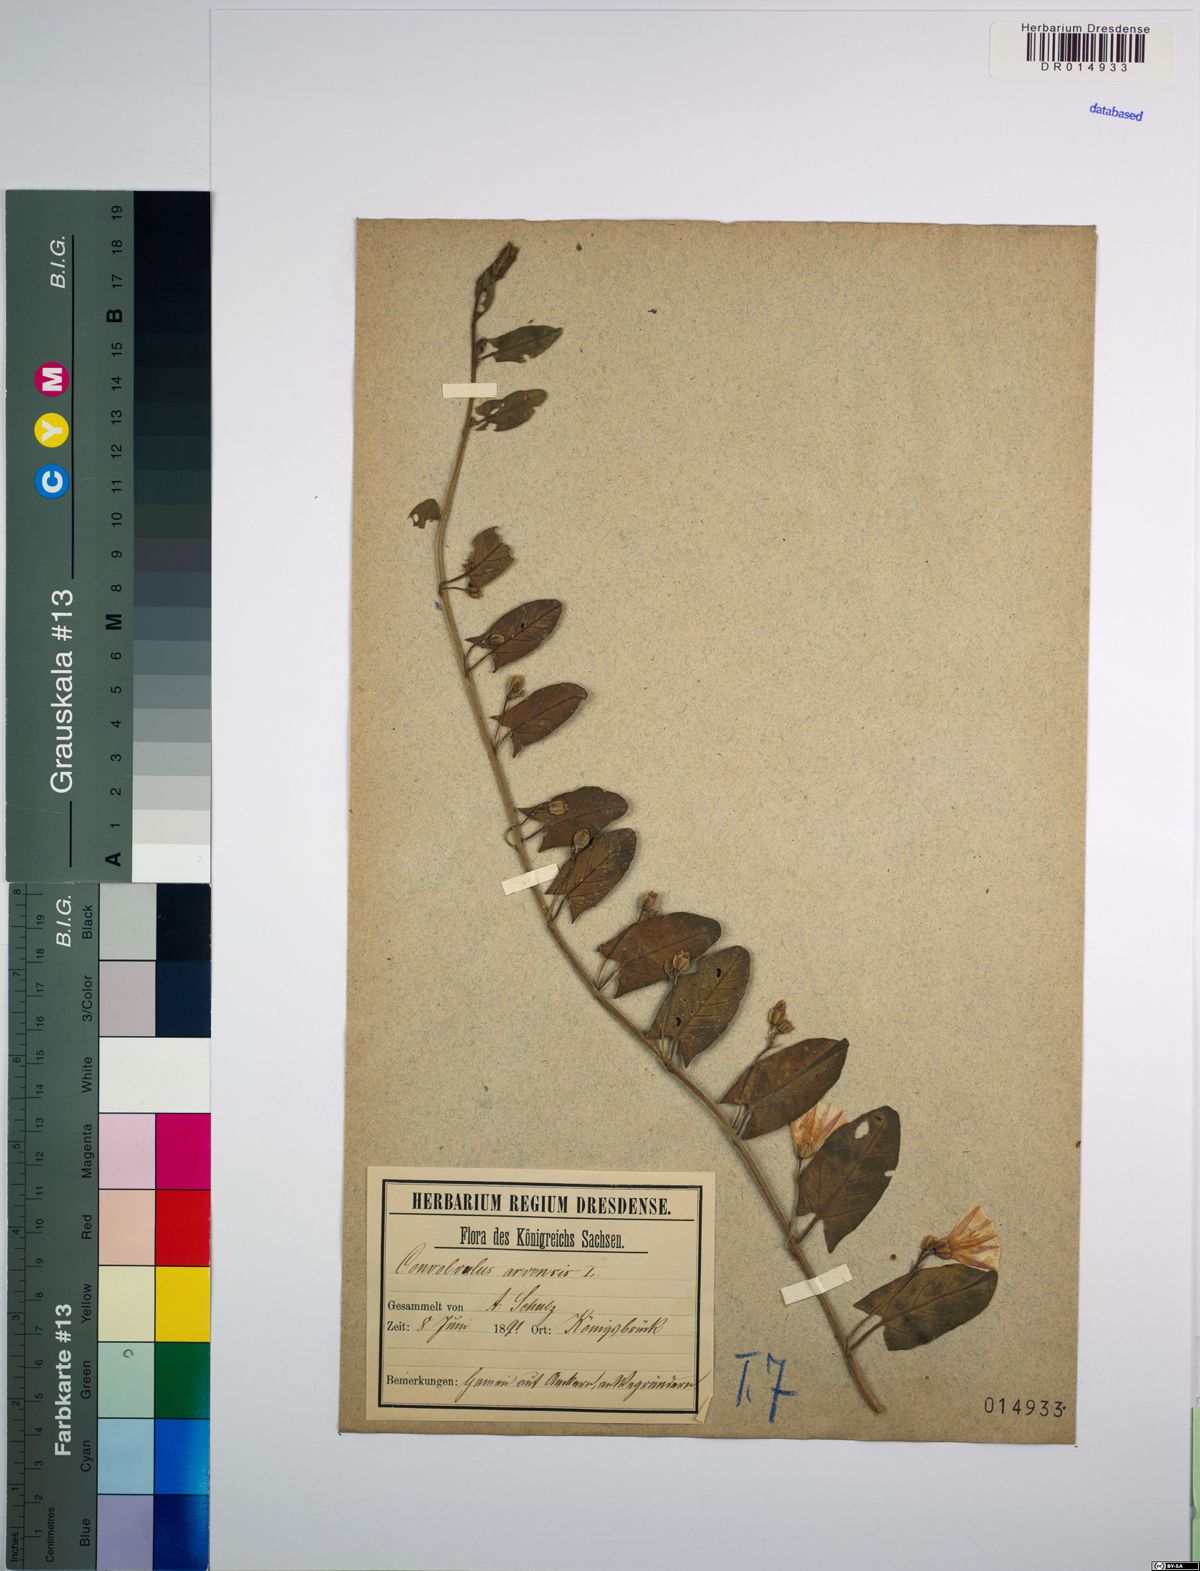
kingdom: Plantae
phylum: Tracheophyta
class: Magnoliopsida
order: Solanales
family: Convolvulaceae
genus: Convolvulus
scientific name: Convolvulus arvensis
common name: Field bindweed
